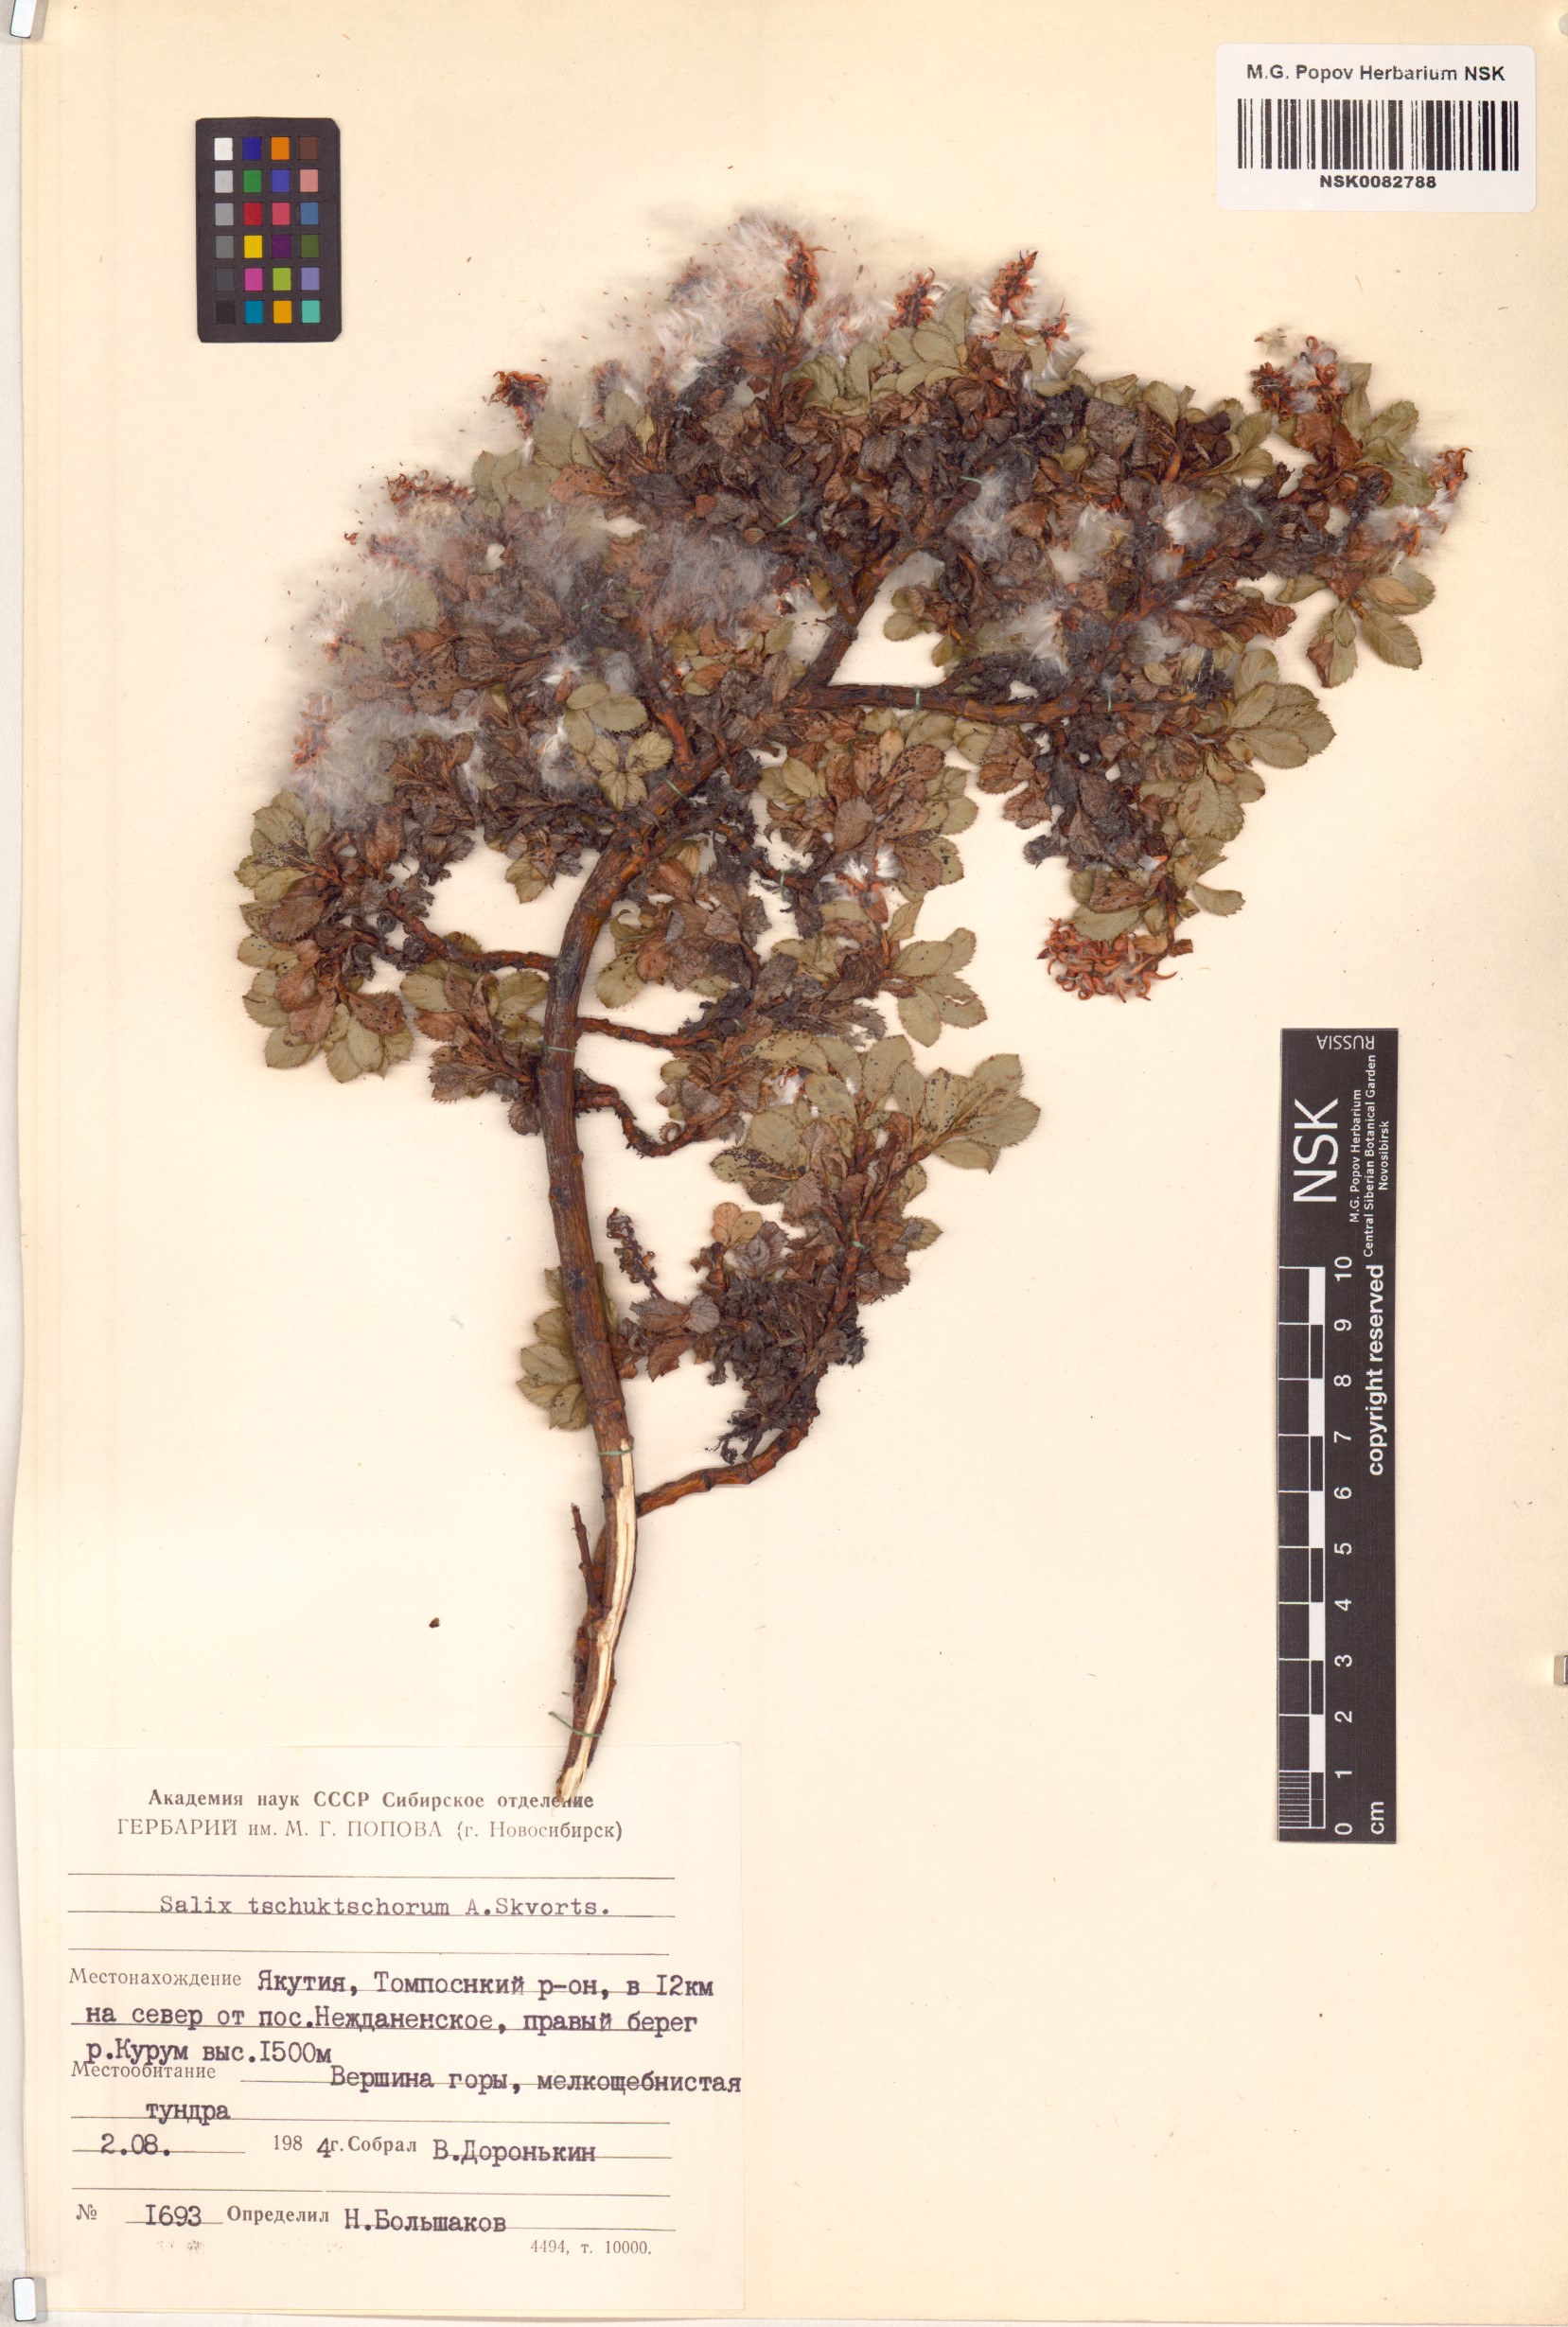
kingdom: Plantae
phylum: Tracheophyta
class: Magnoliopsida
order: Malpighiales
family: Salicaceae
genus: Salix
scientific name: Salix tschuktschorum
